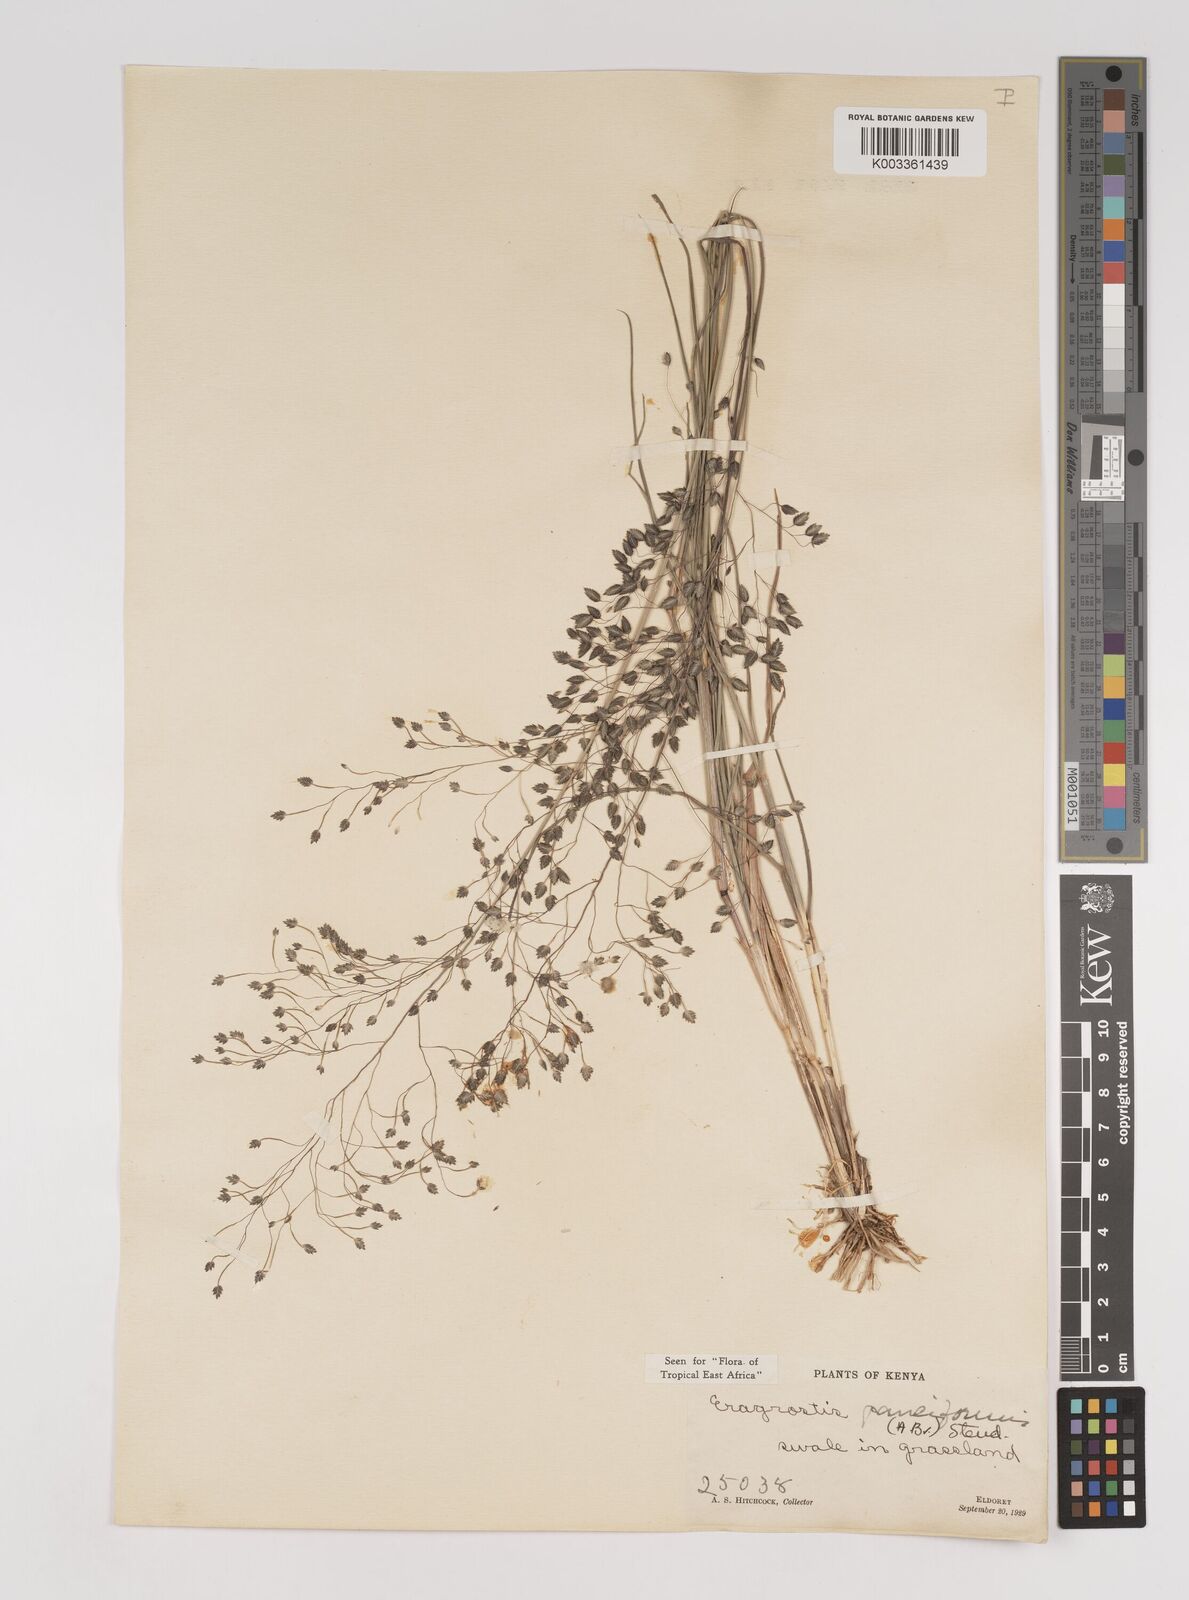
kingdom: Plantae
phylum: Tracheophyta
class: Liliopsida
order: Poales
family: Poaceae
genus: Eragrostis
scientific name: Eragrostis paniciformis
